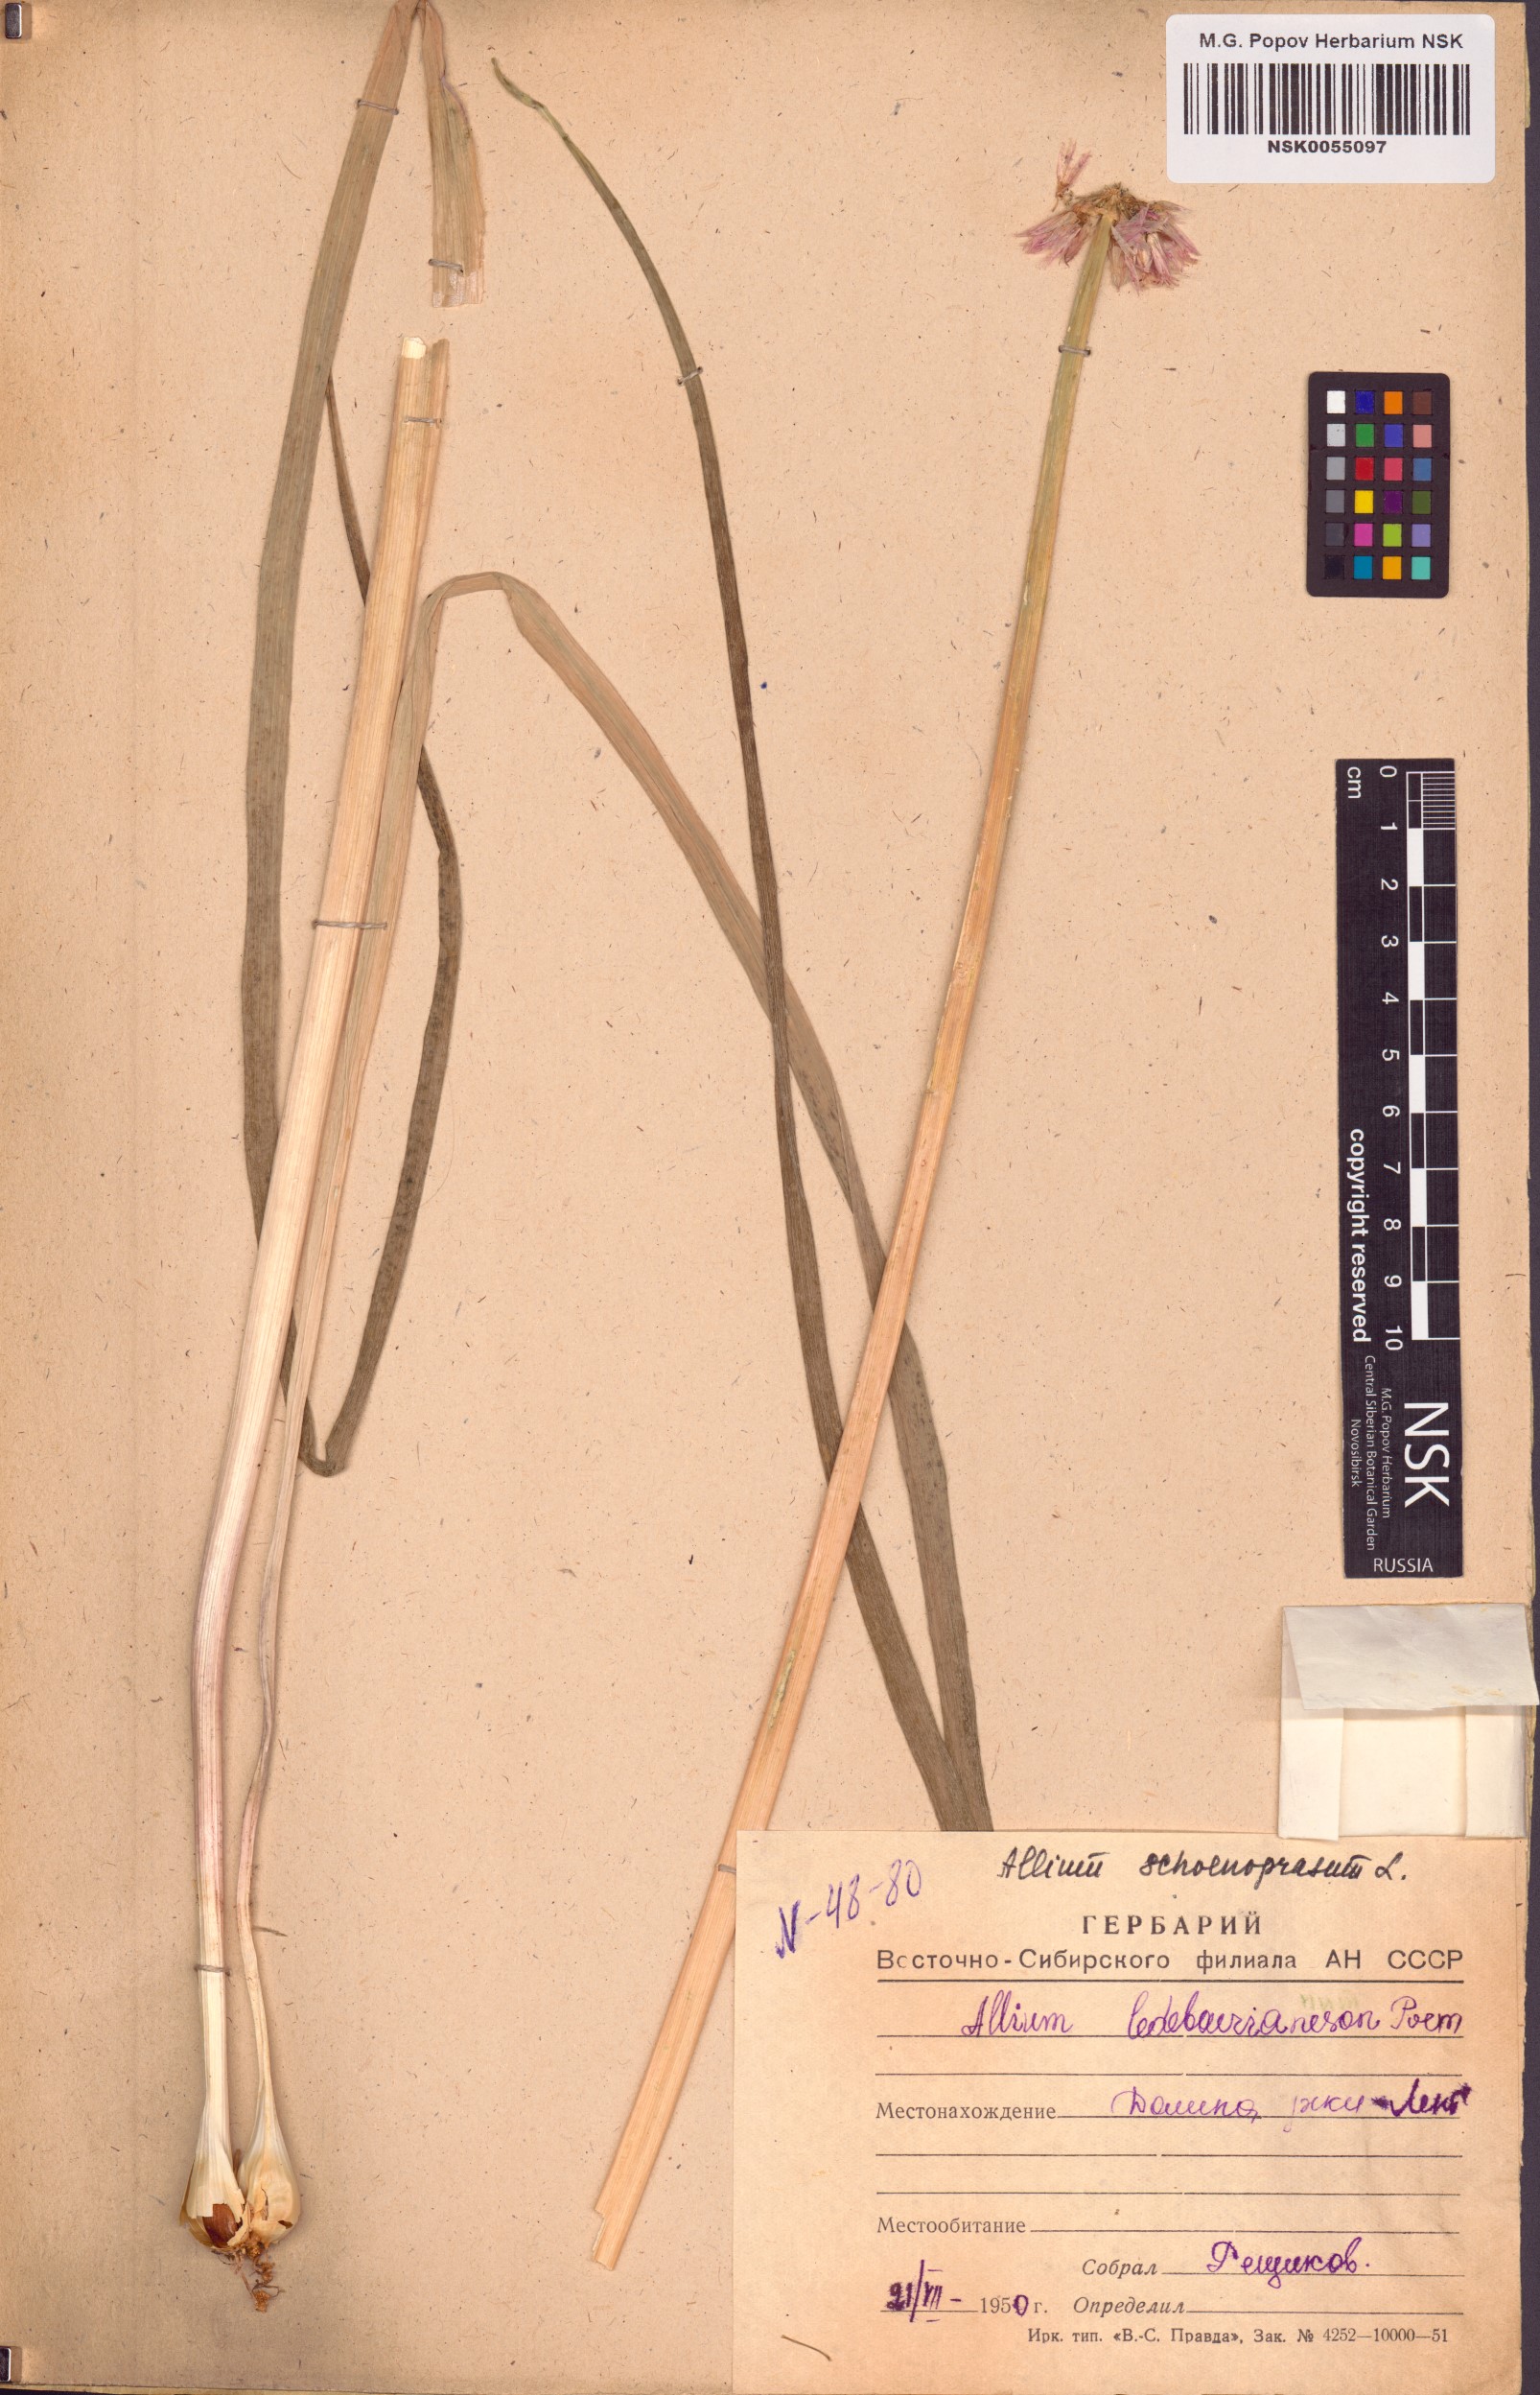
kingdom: Plantae
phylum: Tracheophyta
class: Liliopsida
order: Asparagales
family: Amaryllidaceae
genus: Allium
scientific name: Allium schoenoprasum
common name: Chives
